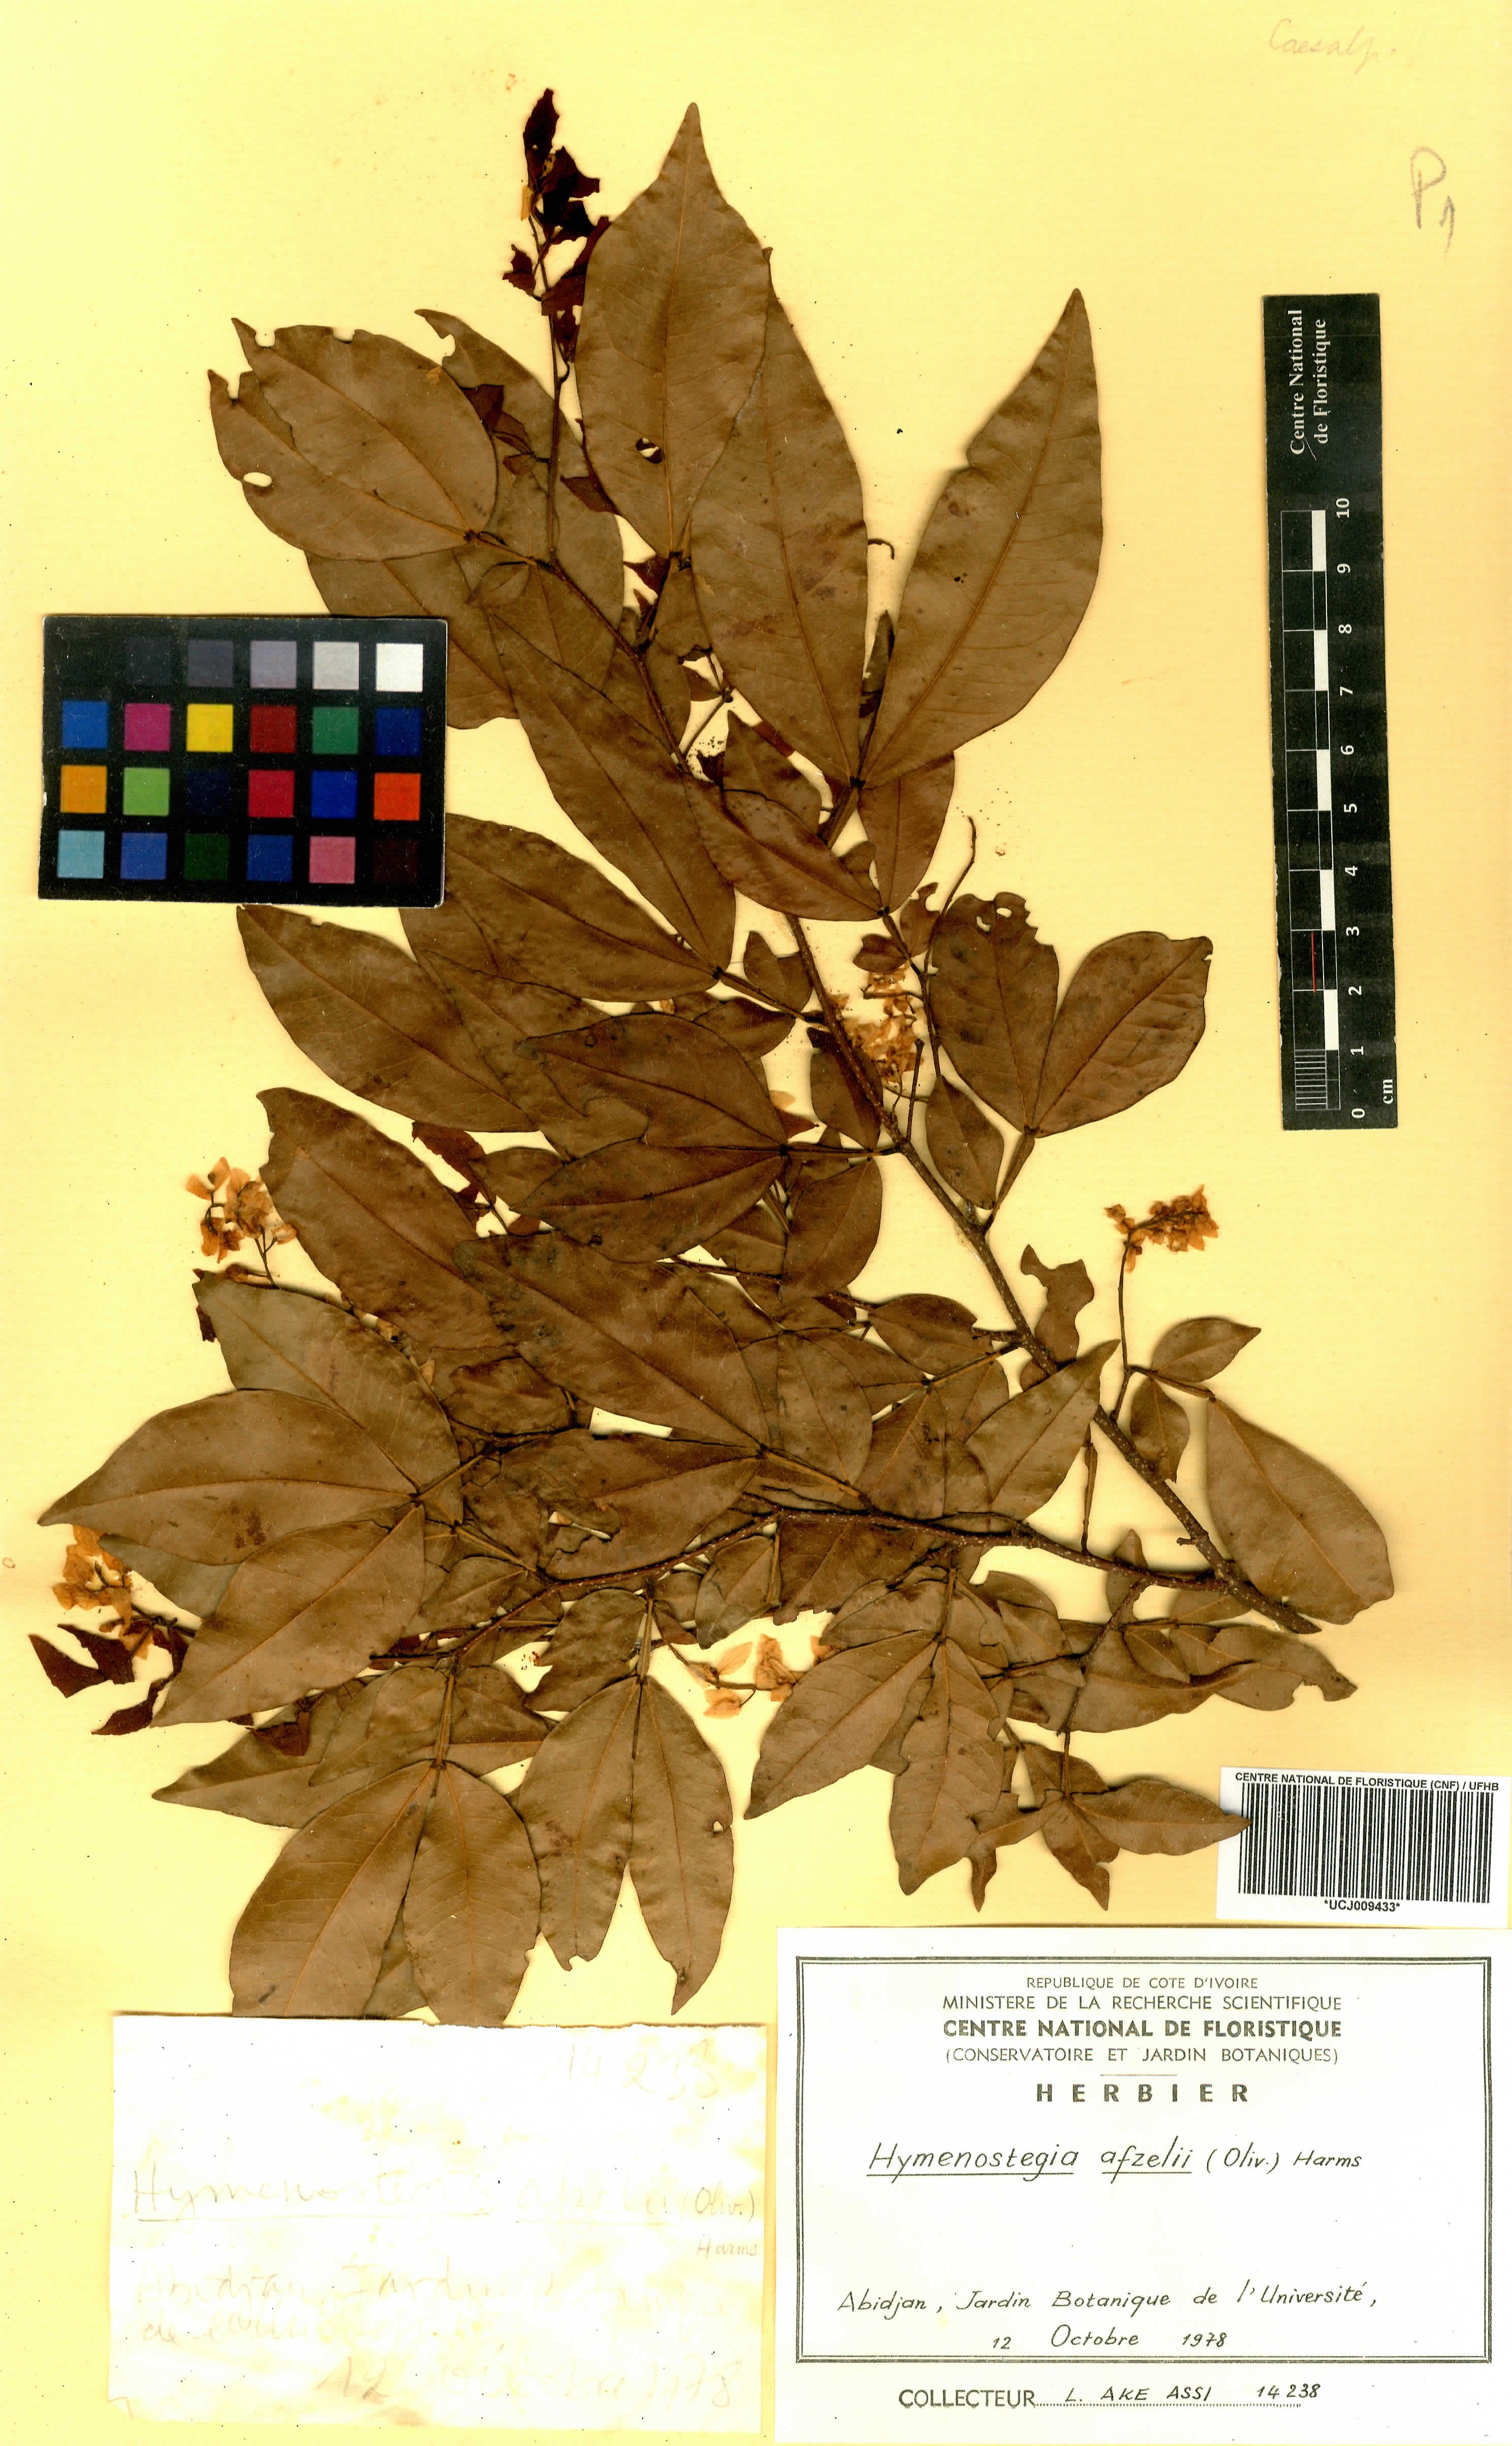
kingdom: Plantae
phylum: Tracheophyta
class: Magnoliopsida
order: Fabales
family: Fabaceae
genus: Annea
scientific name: Annea afzelii
